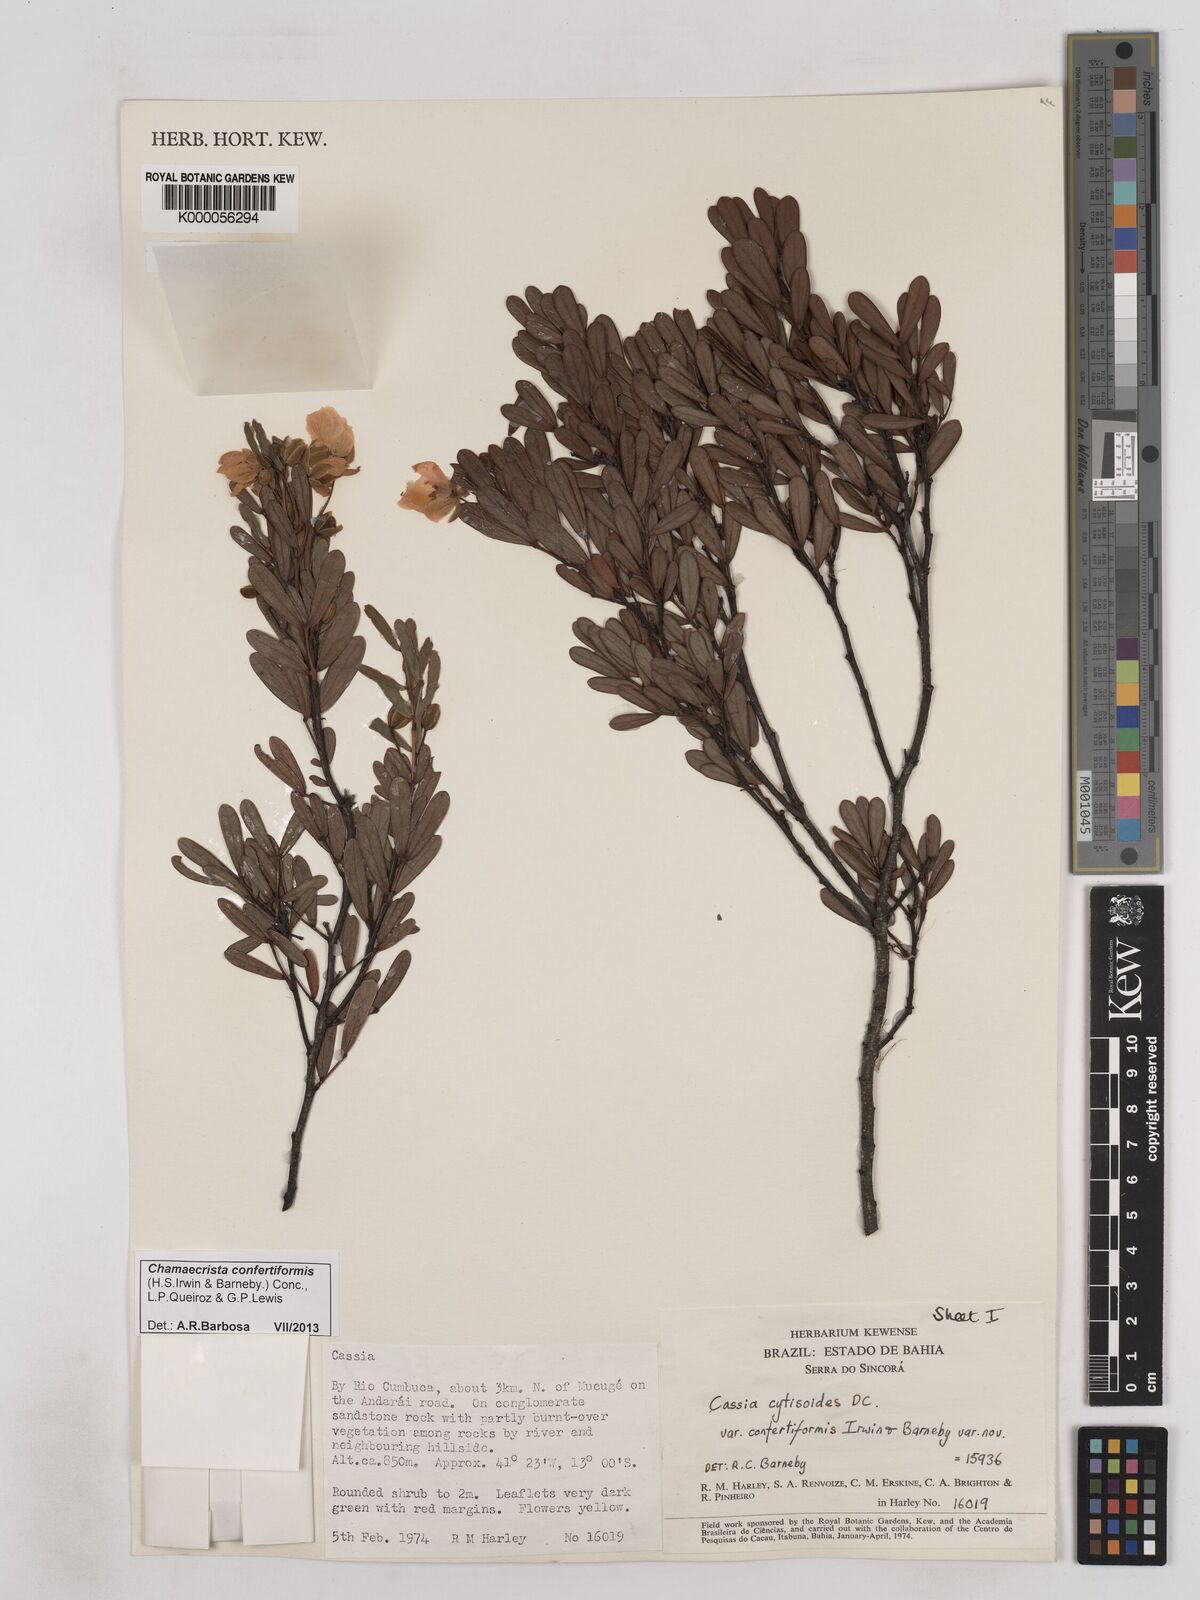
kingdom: Plantae
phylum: Tracheophyta
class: Magnoliopsida
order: Fabales
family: Fabaceae
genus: Chamaecrista
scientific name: Chamaecrista confertiformis
